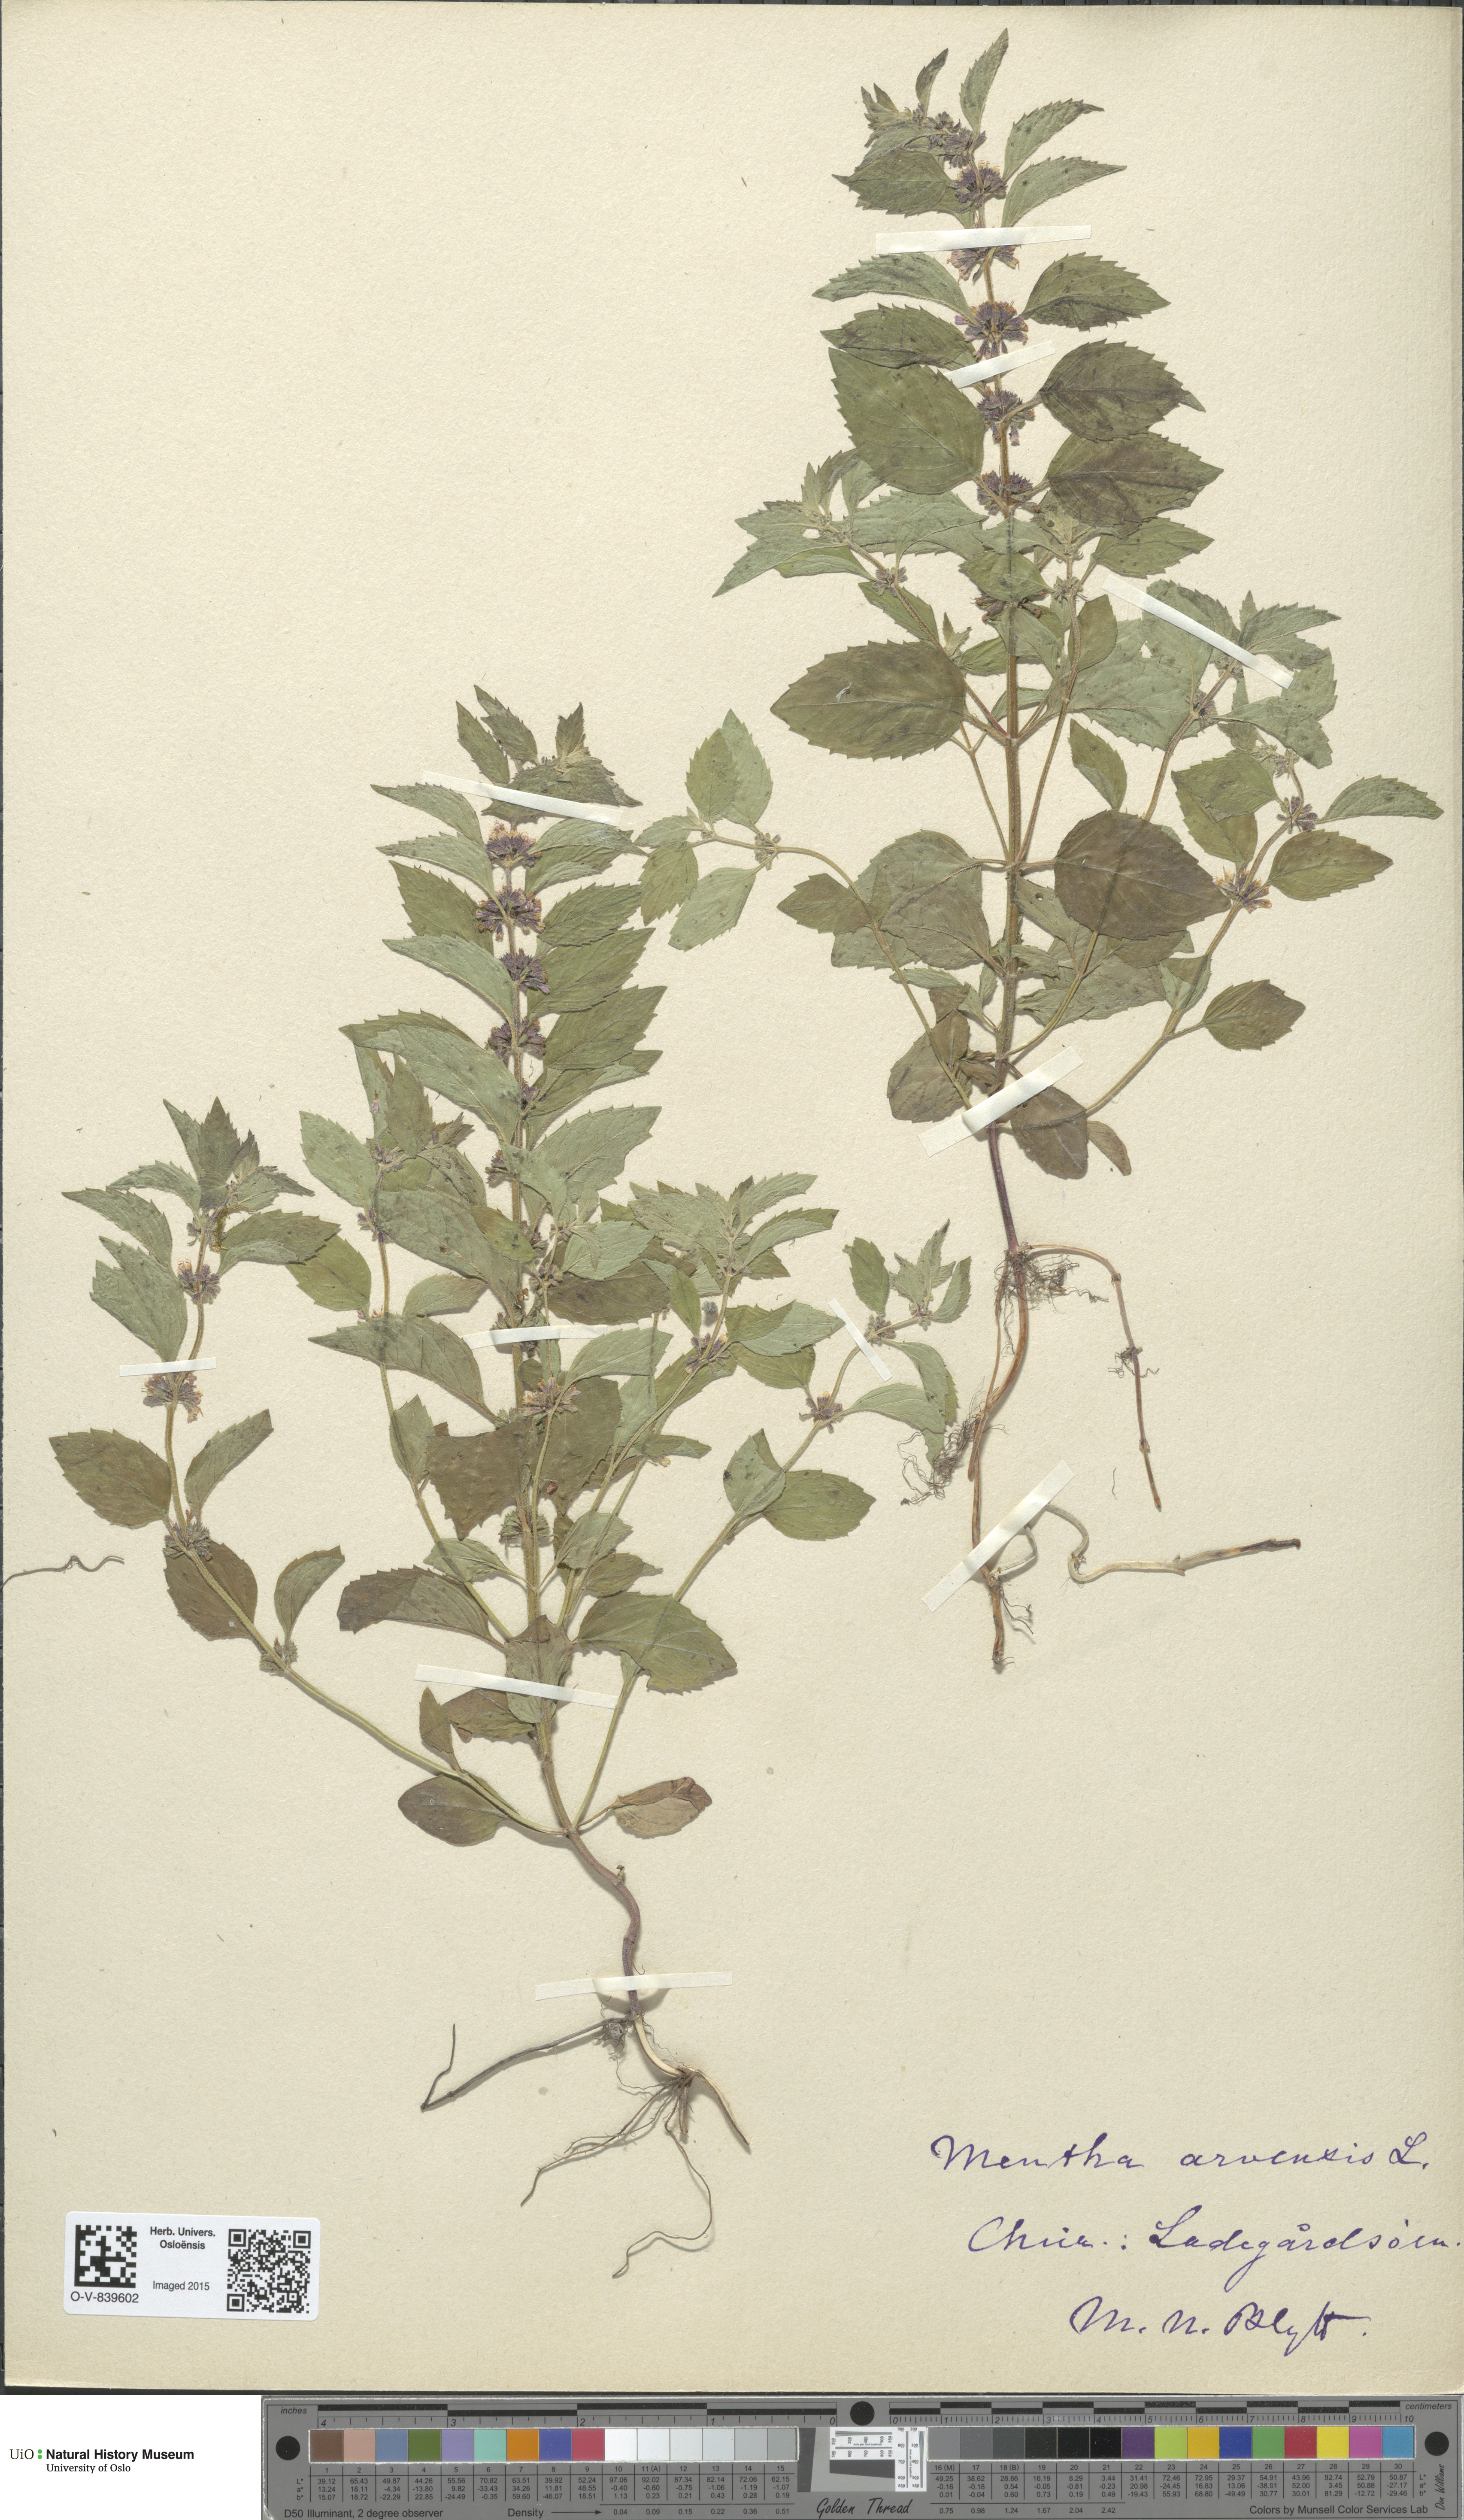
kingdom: Plantae
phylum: Tracheophyta
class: Magnoliopsida
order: Lamiales
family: Lamiaceae
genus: Mentha
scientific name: Mentha arvensis
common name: Corn mint
